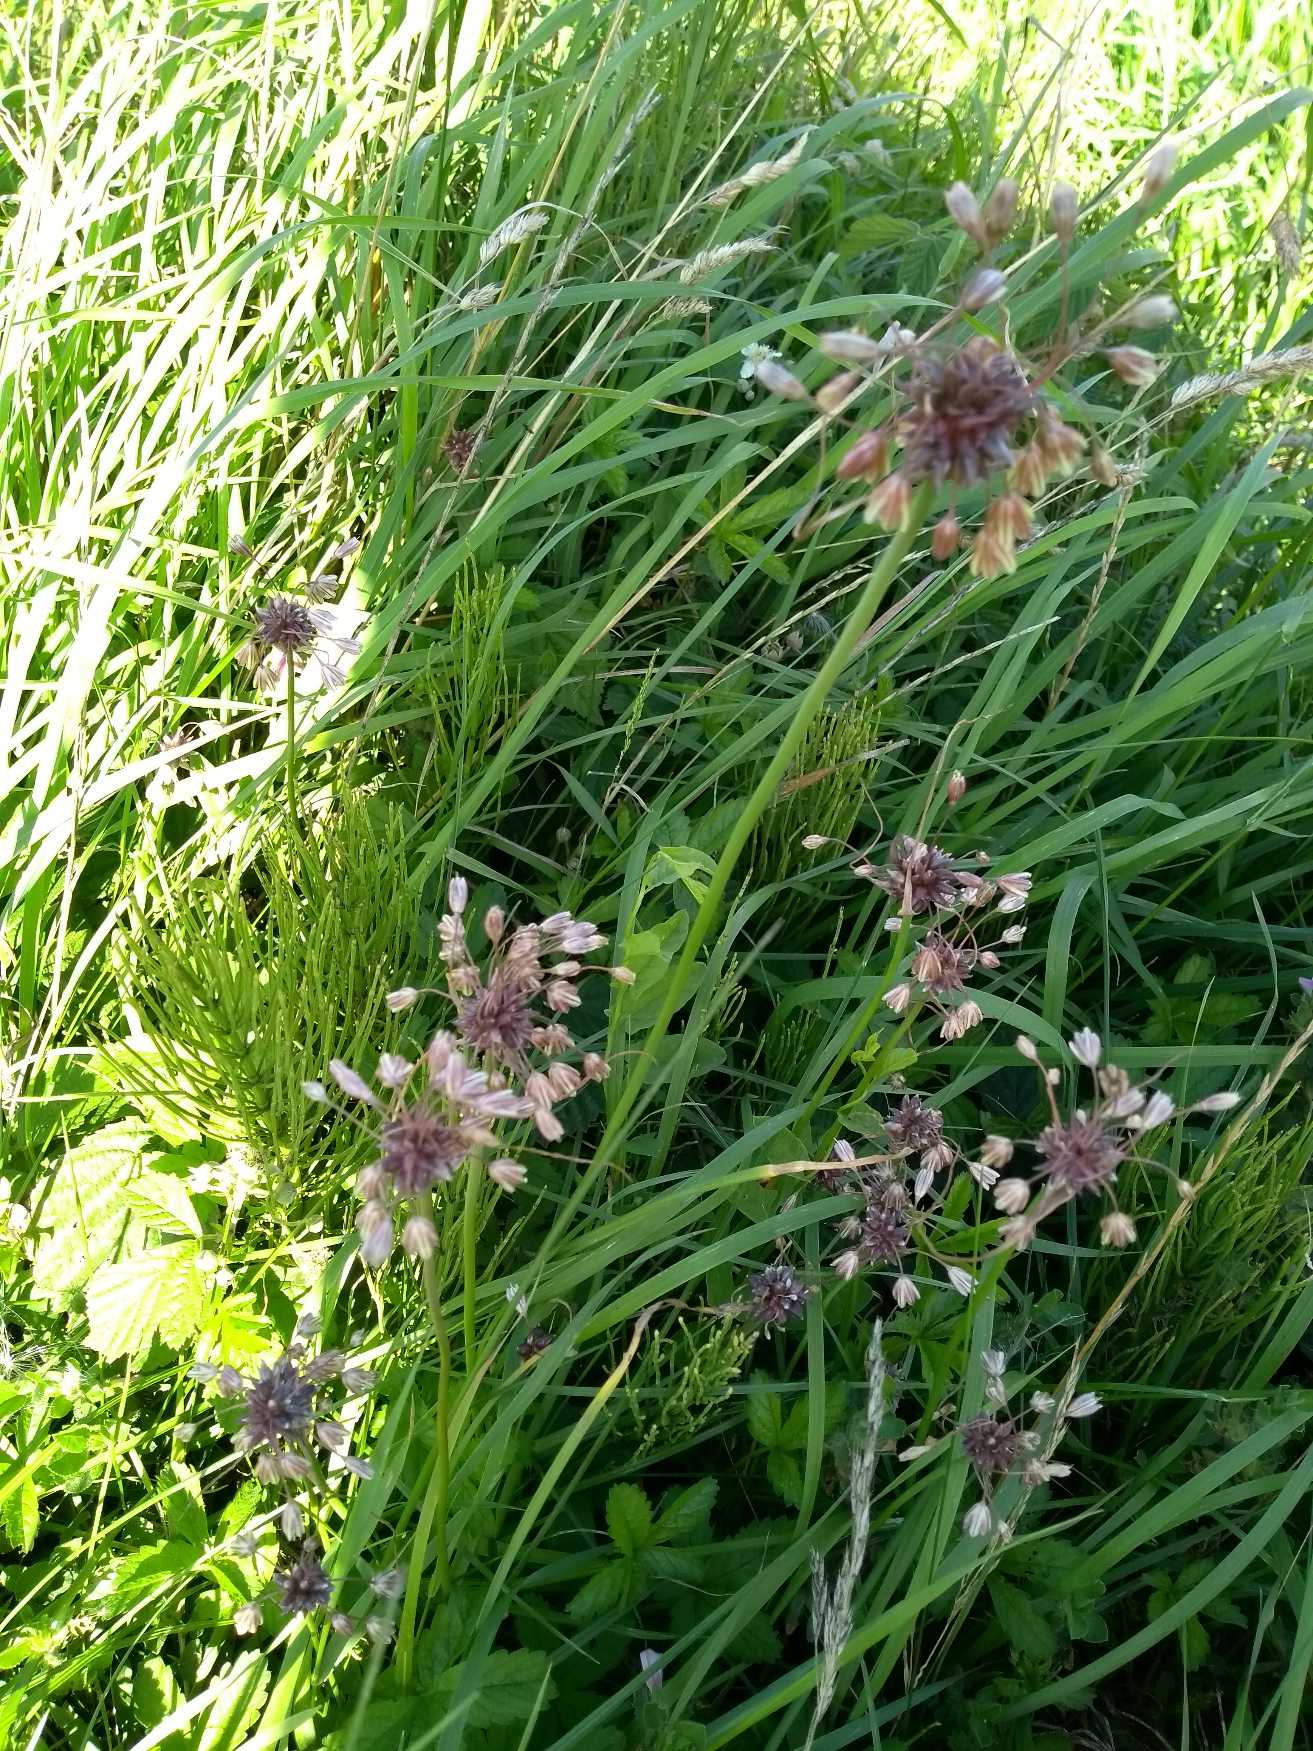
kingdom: Plantae
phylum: Tracheophyta
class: Liliopsida
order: Asparagales
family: Amaryllidaceae
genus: Allium
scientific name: Allium oleraceum
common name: Vild løg
